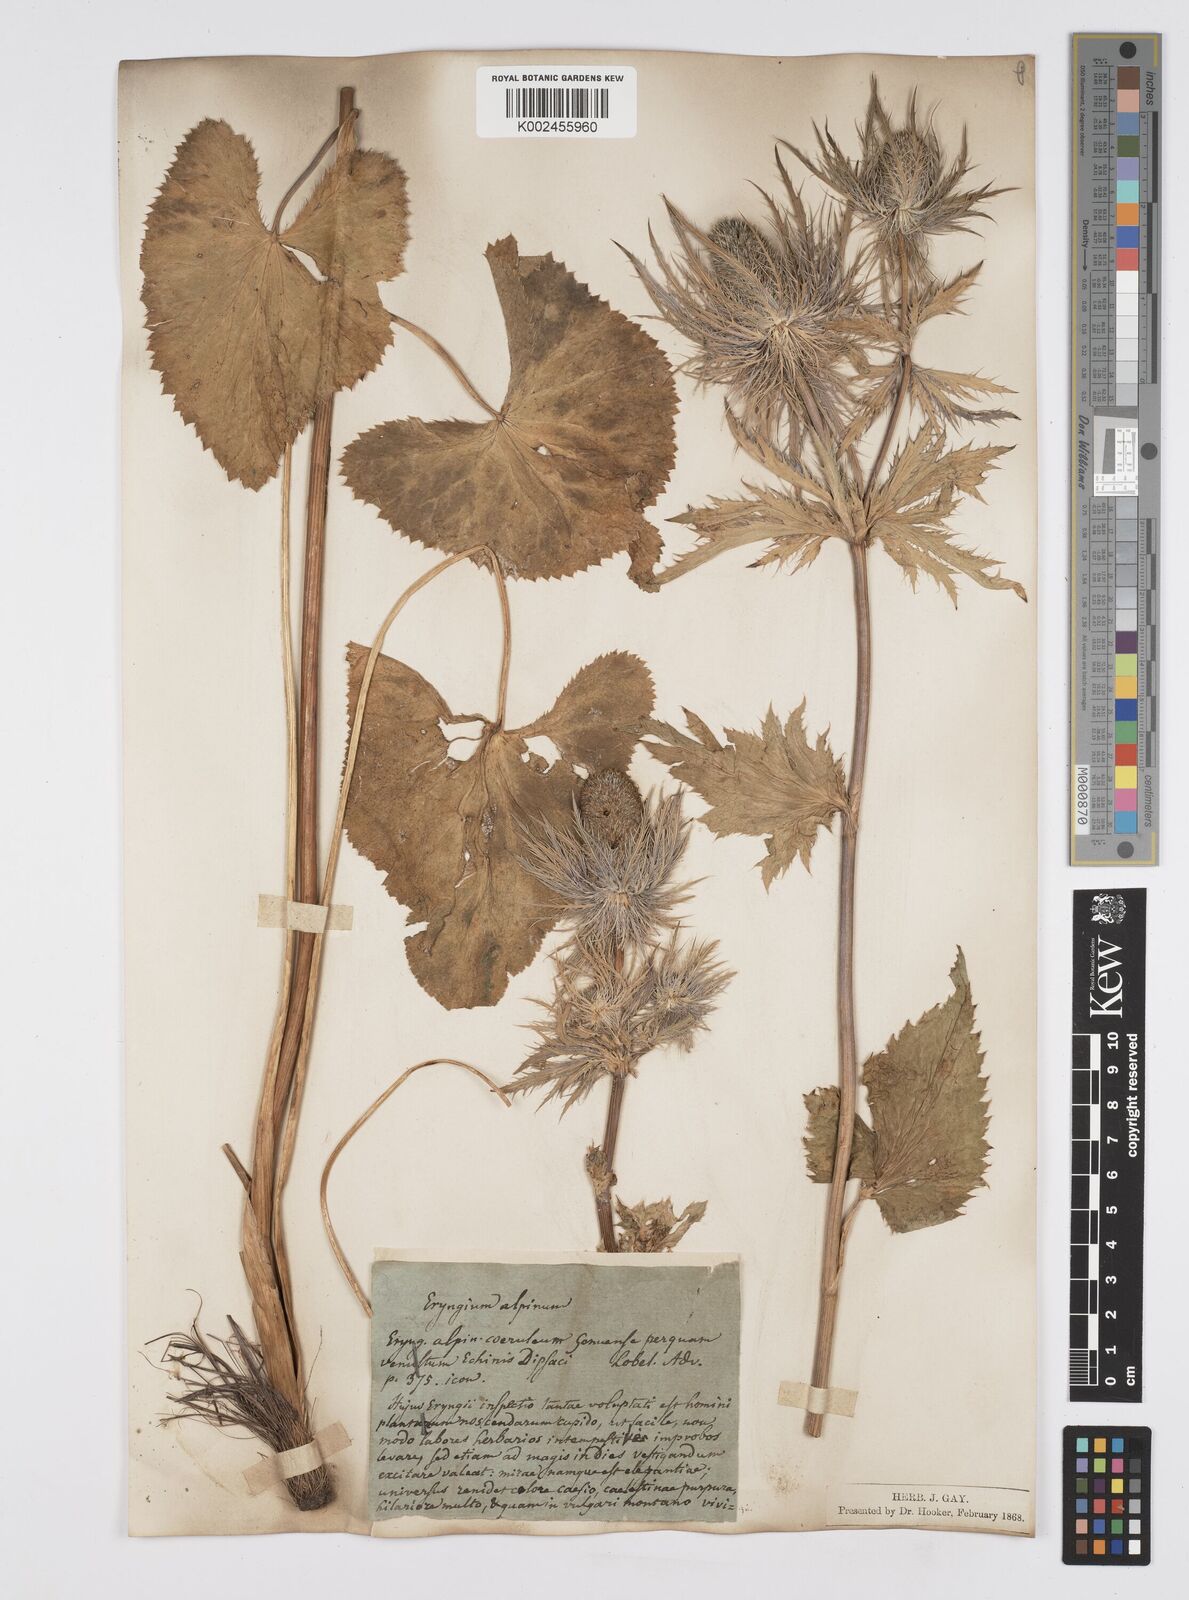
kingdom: Plantae
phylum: Tracheophyta
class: Magnoliopsida
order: Apiales
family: Apiaceae
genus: Eryngium
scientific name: Eryngium alpinum
